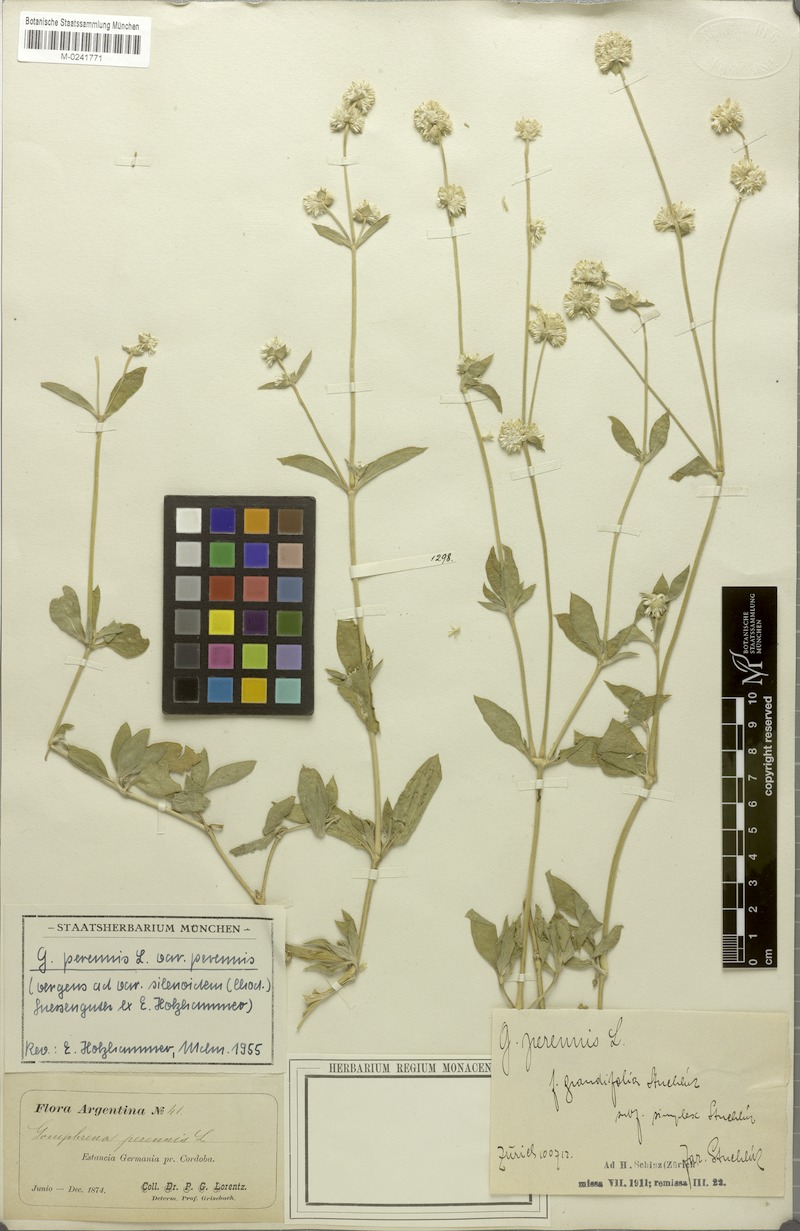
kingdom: Plantae
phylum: Tracheophyta
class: Magnoliopsida
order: Caryophyllales
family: Amaranthaceae
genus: Gomphrena
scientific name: Gomphrena perennis
